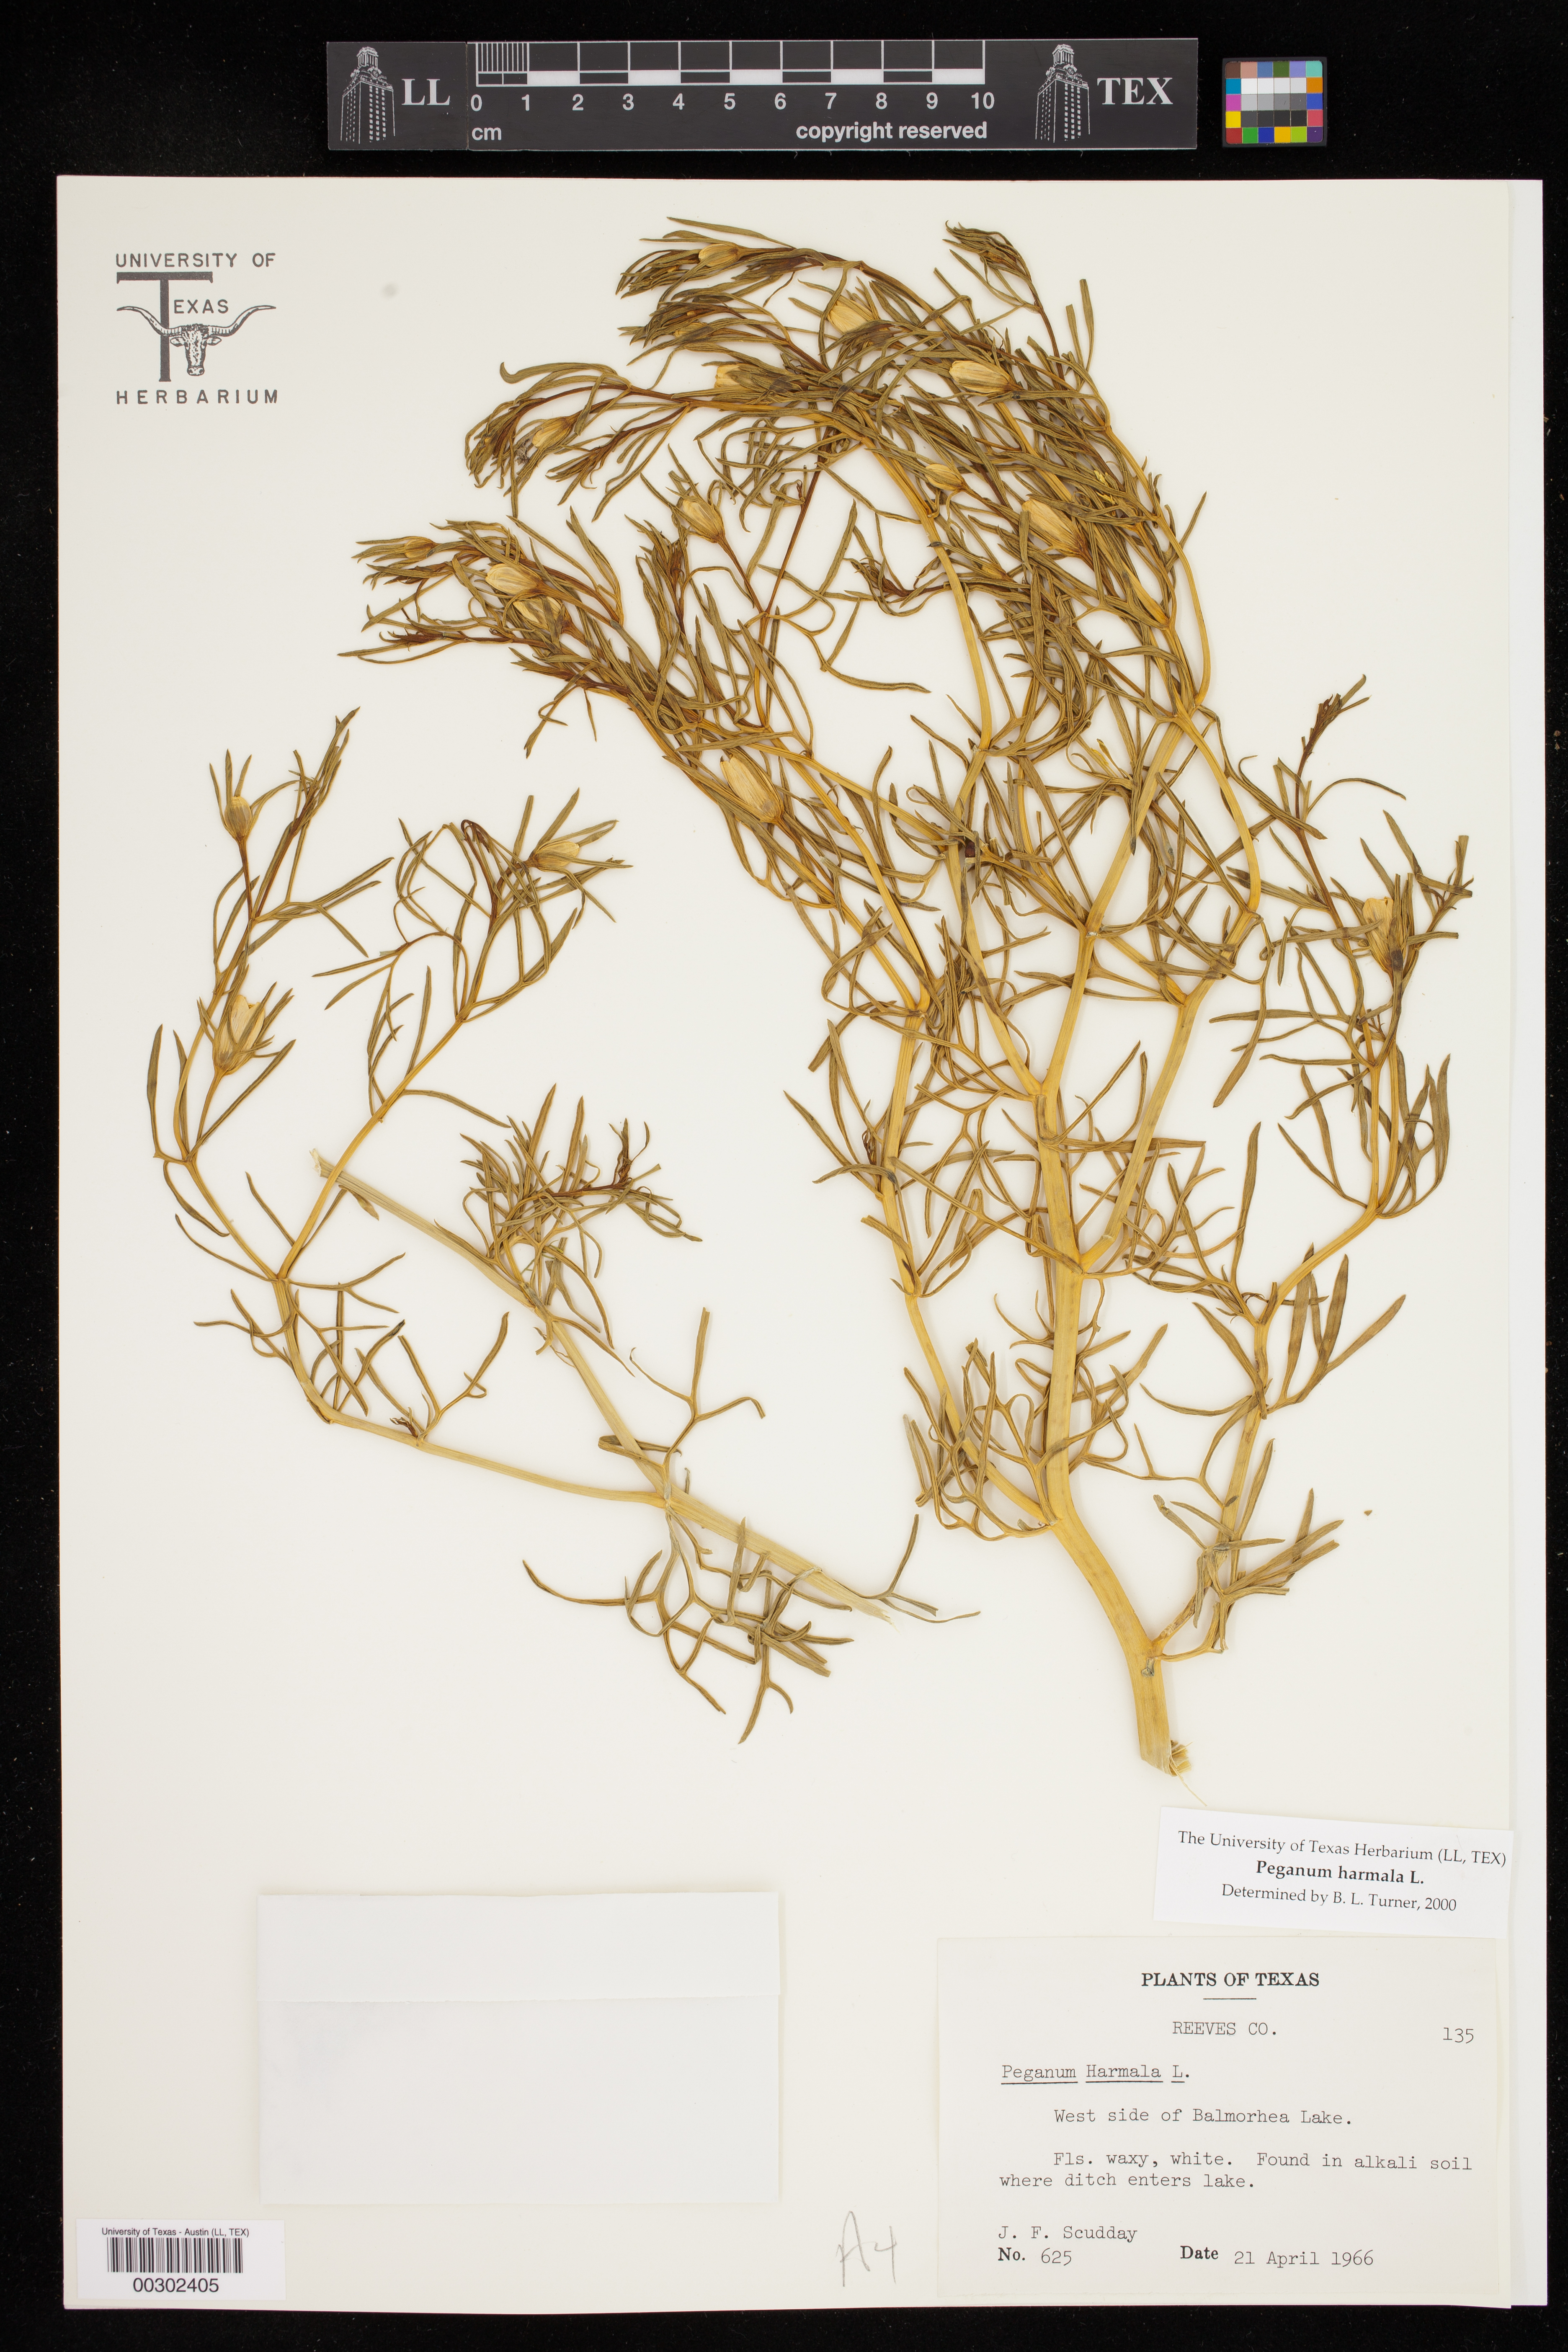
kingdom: Plantae
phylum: Tracheophyta
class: Magnoliopsida
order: Sapindales
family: Tetradiclidaceae
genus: Peganum
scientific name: Peganum harmala
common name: Harmal peganum
